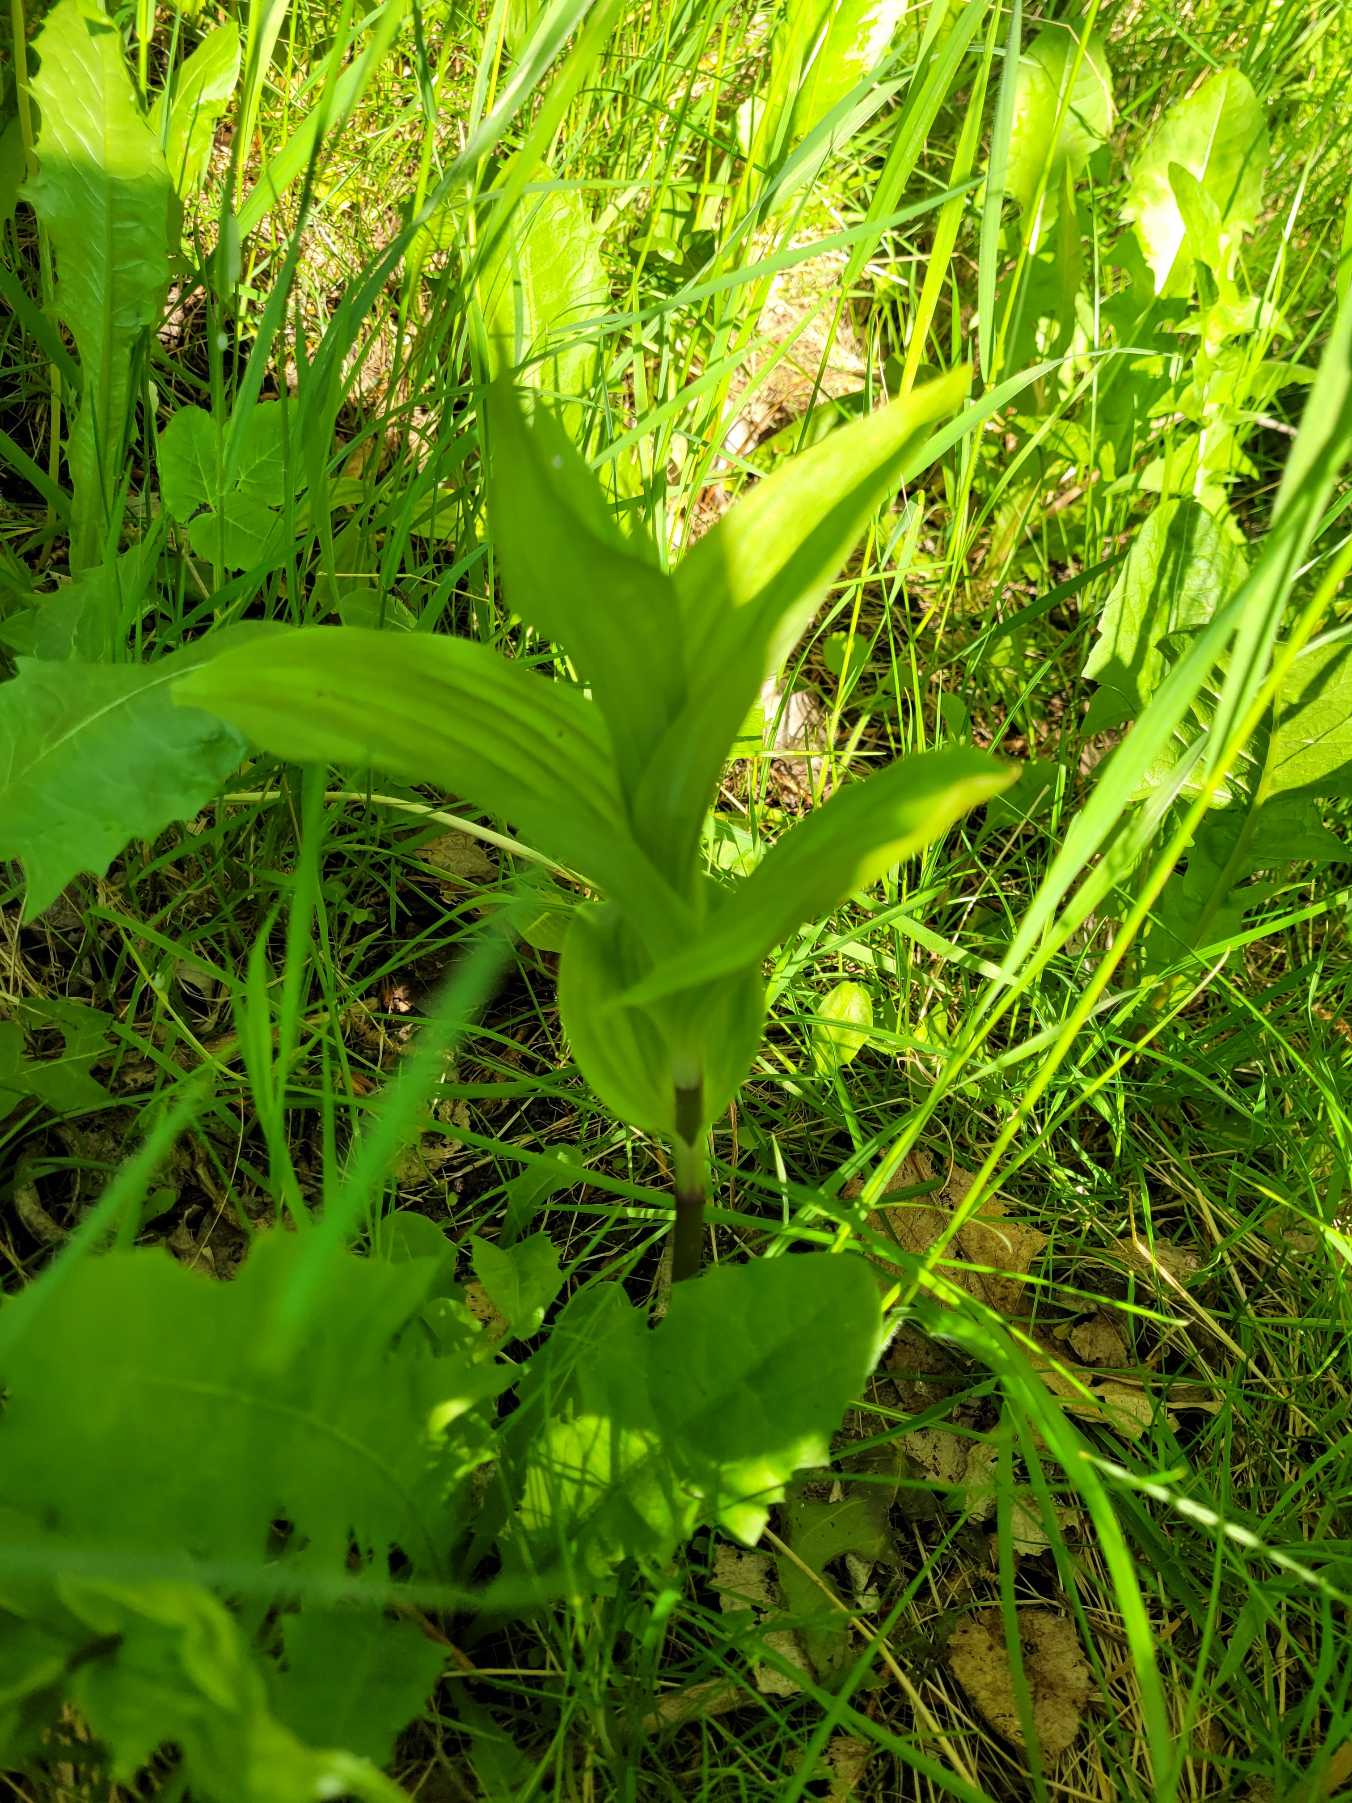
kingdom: Plantae
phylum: Tracheophyta
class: Liliopsida
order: Asparagales
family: Orchidaceae
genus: Epipactis
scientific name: Epipactis helleborine
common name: Skov-hullæbe
